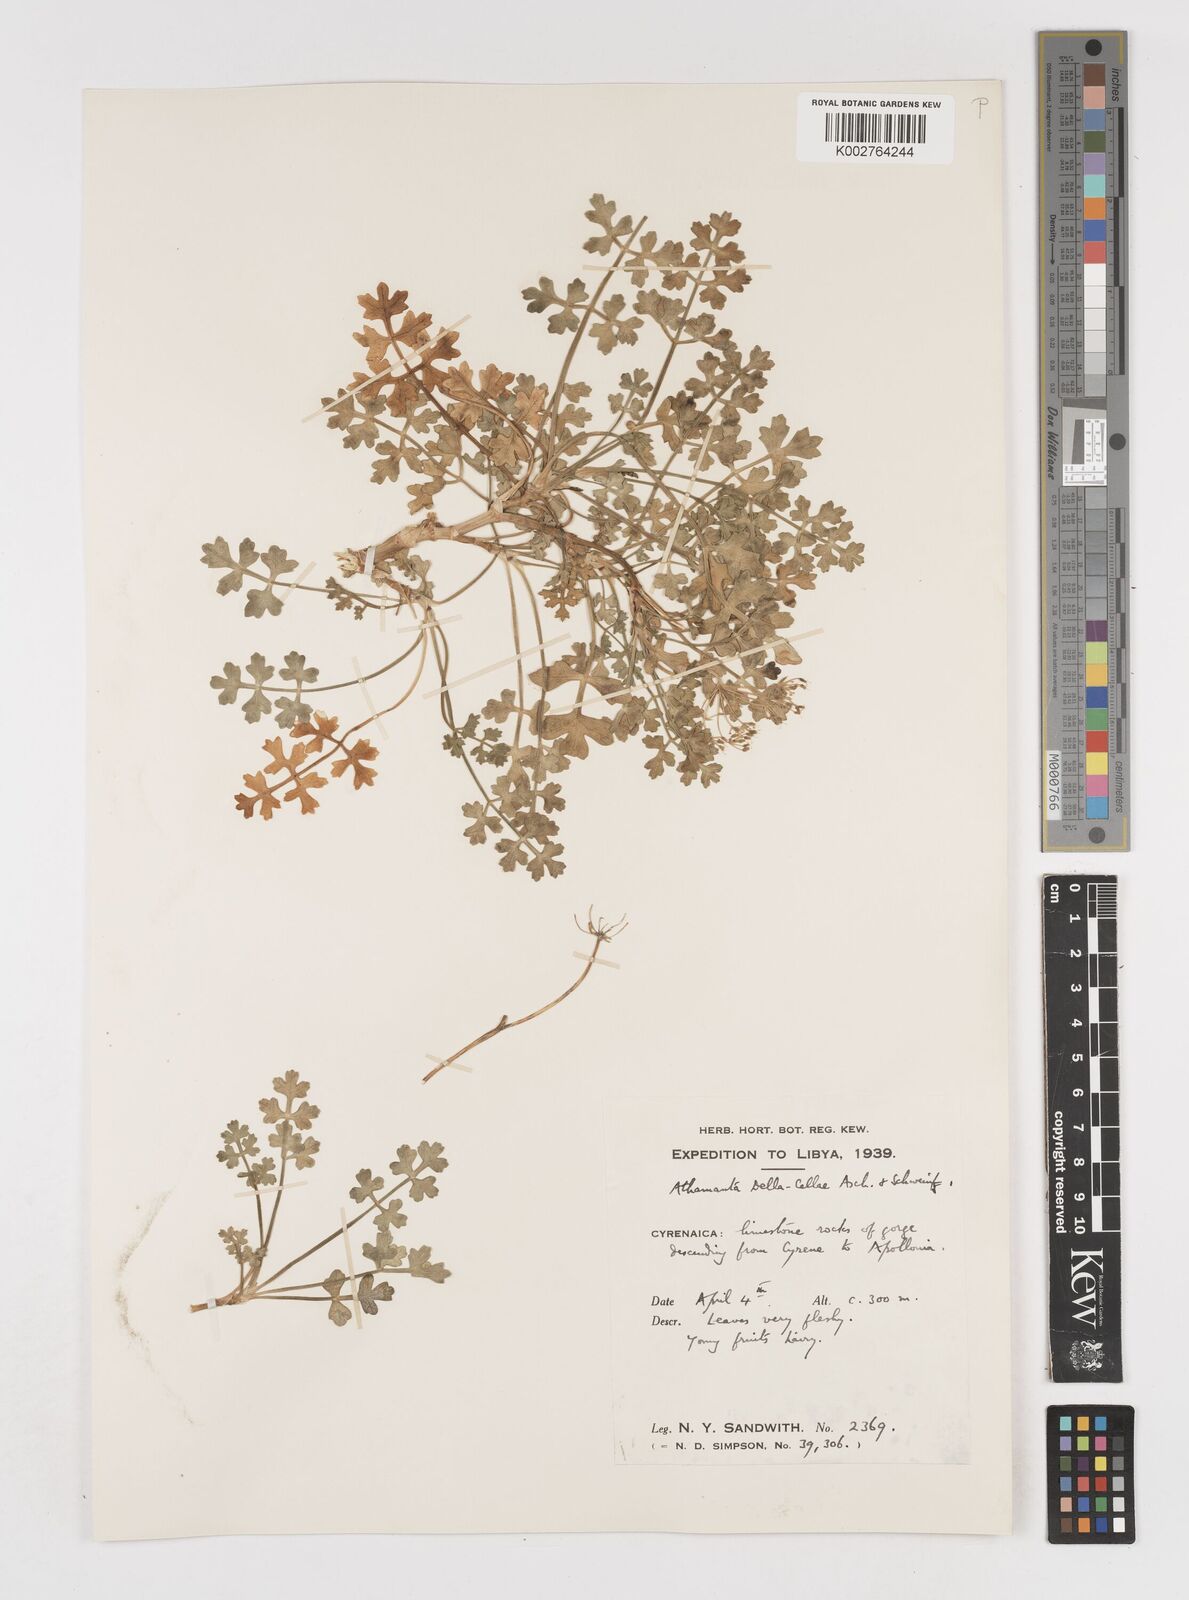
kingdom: Plantae
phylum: Tracheophyta
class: Magnoliopsida
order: Apiales
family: Apiaceae
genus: Daucus
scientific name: Daucus della-cellae
